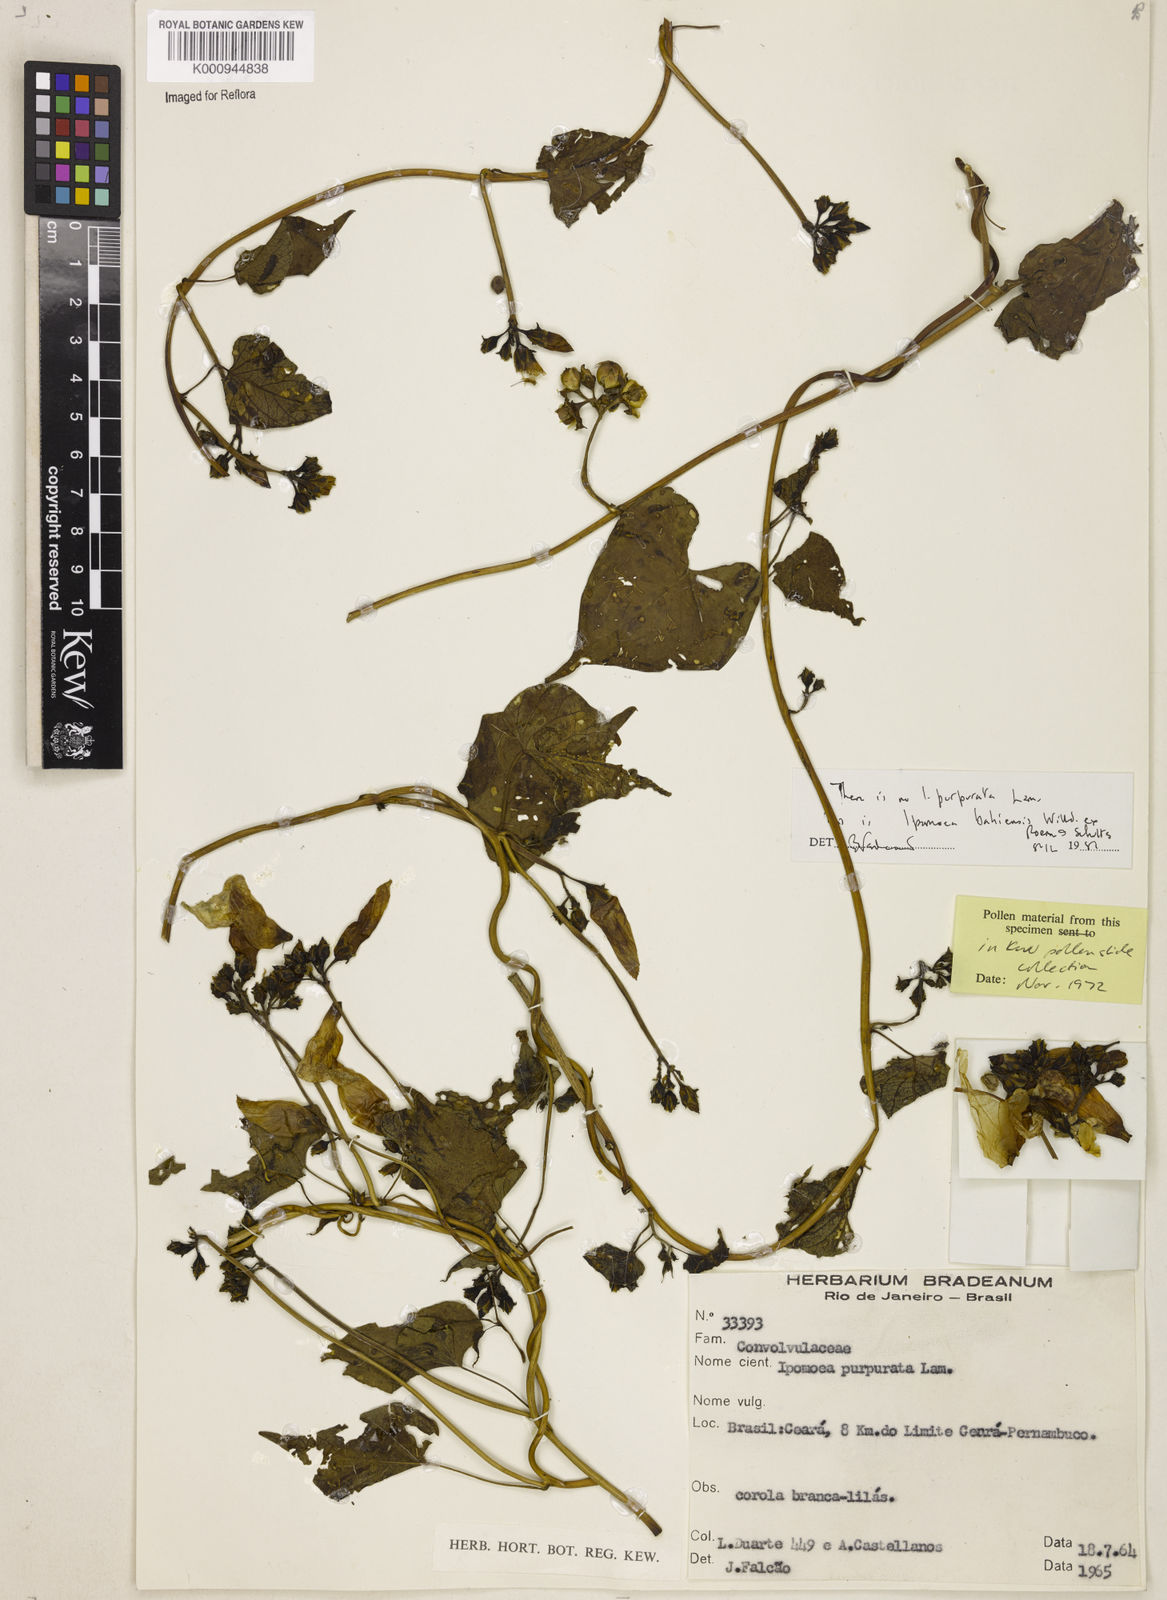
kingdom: Plantae
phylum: Tracheophyta
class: Magnoliopsida
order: Solanales
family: Convolvulaceae
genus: Ipomoea
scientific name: Ipomoea
